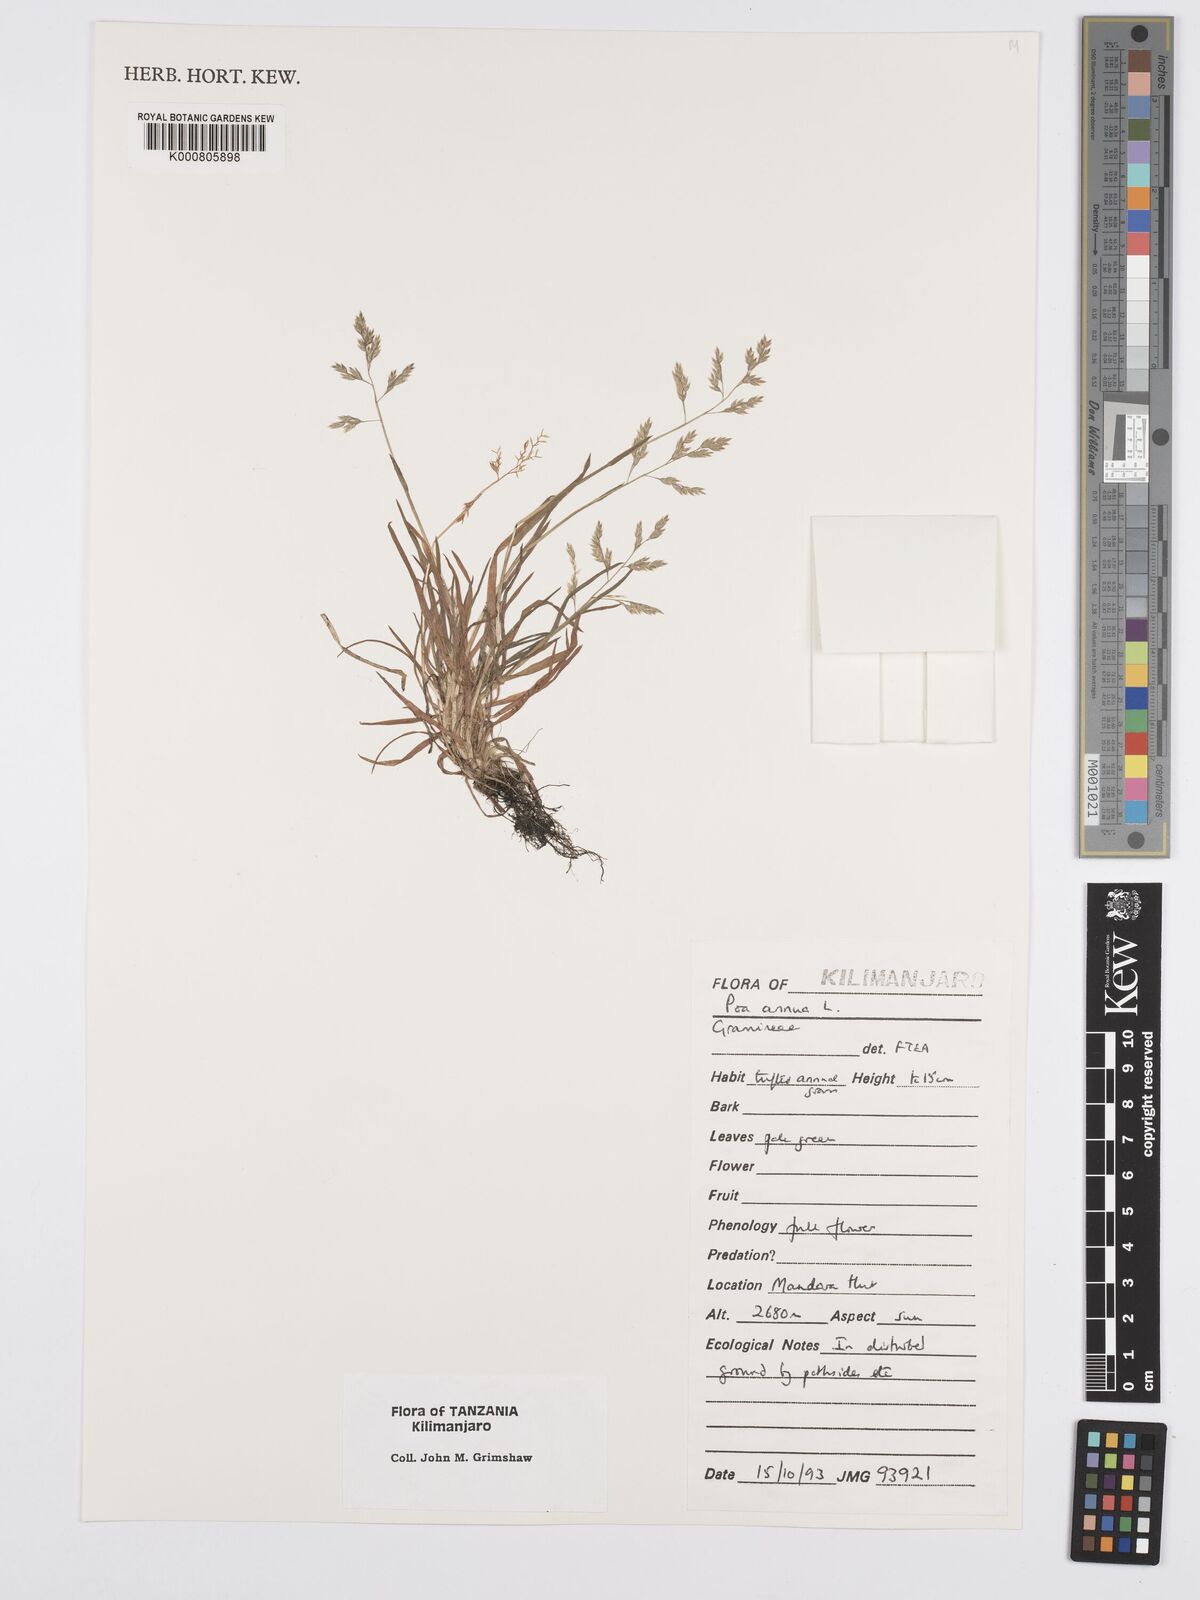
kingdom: Plantae
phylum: Tracheophyta
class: Liliopsida
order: Poales
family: Poaceae
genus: Poa
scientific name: Poa annua
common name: Annual bluegrass
